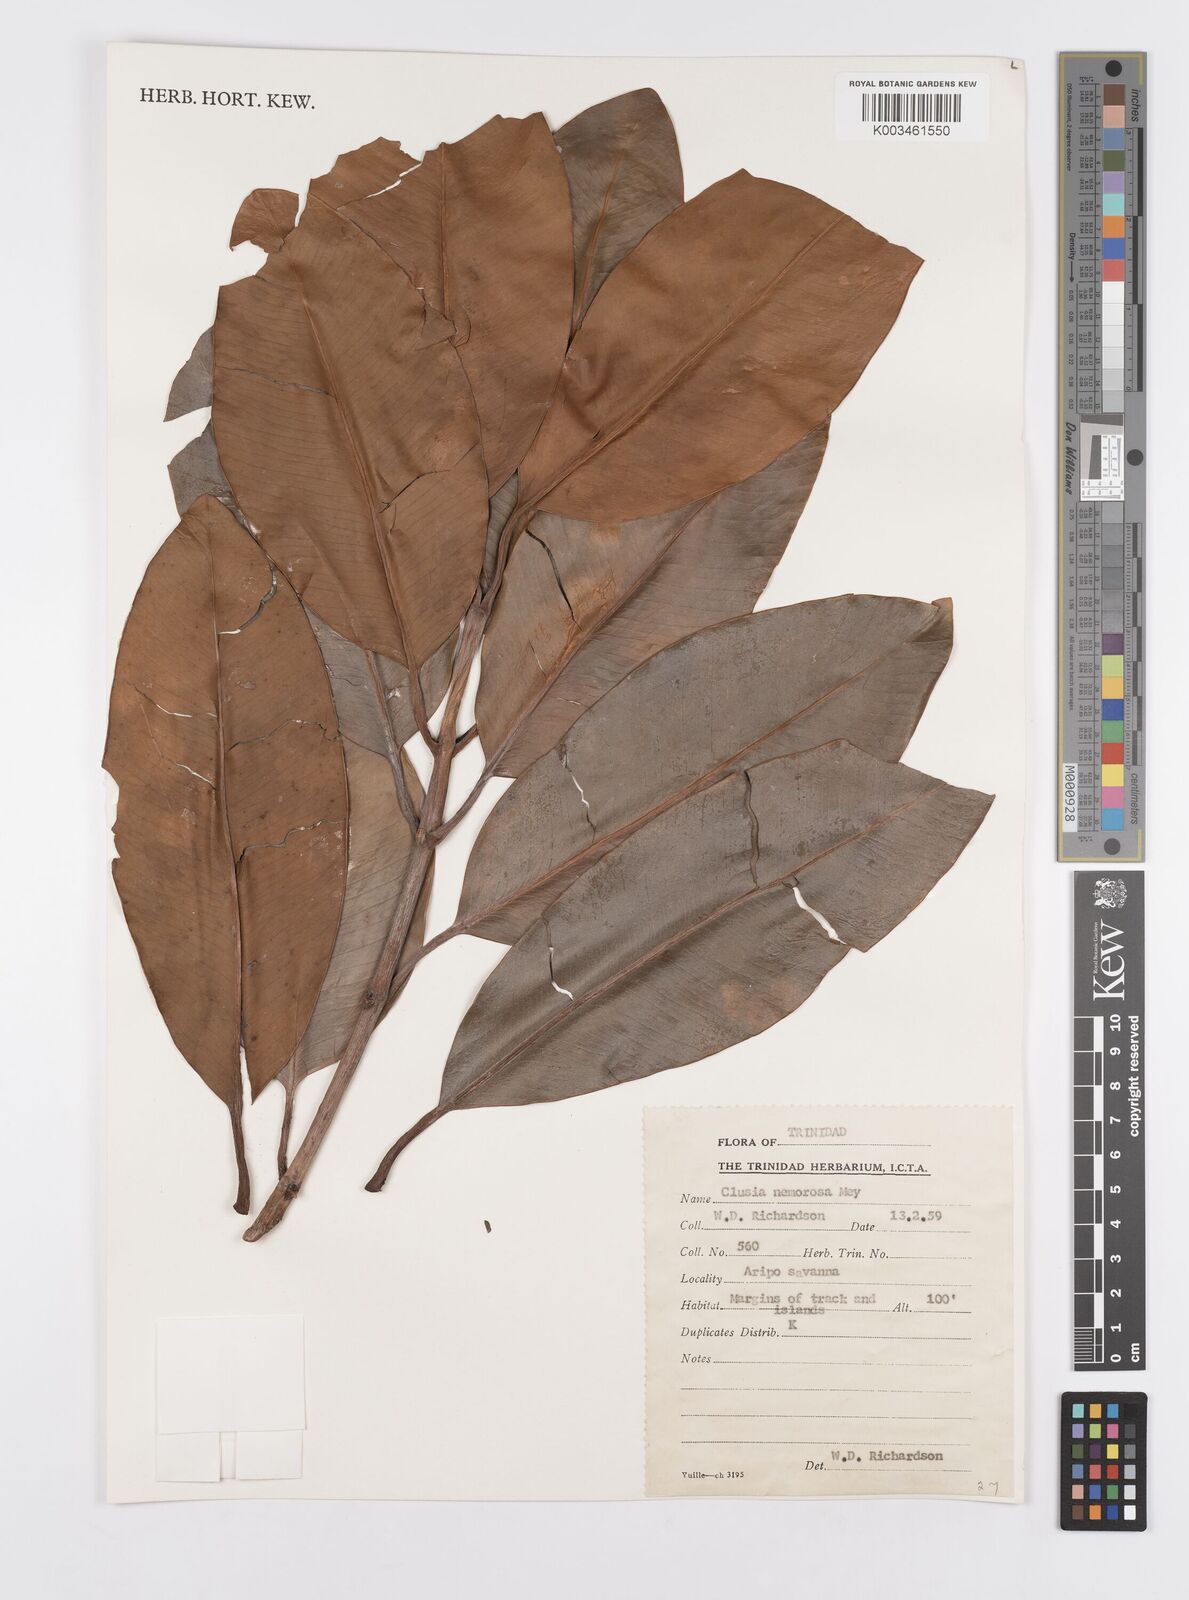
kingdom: Plantae
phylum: Tracheophyta
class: Magnoliopsida
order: Malpighiales
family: Clusiaceae
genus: Clusia
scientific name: Clusia nemorosa
